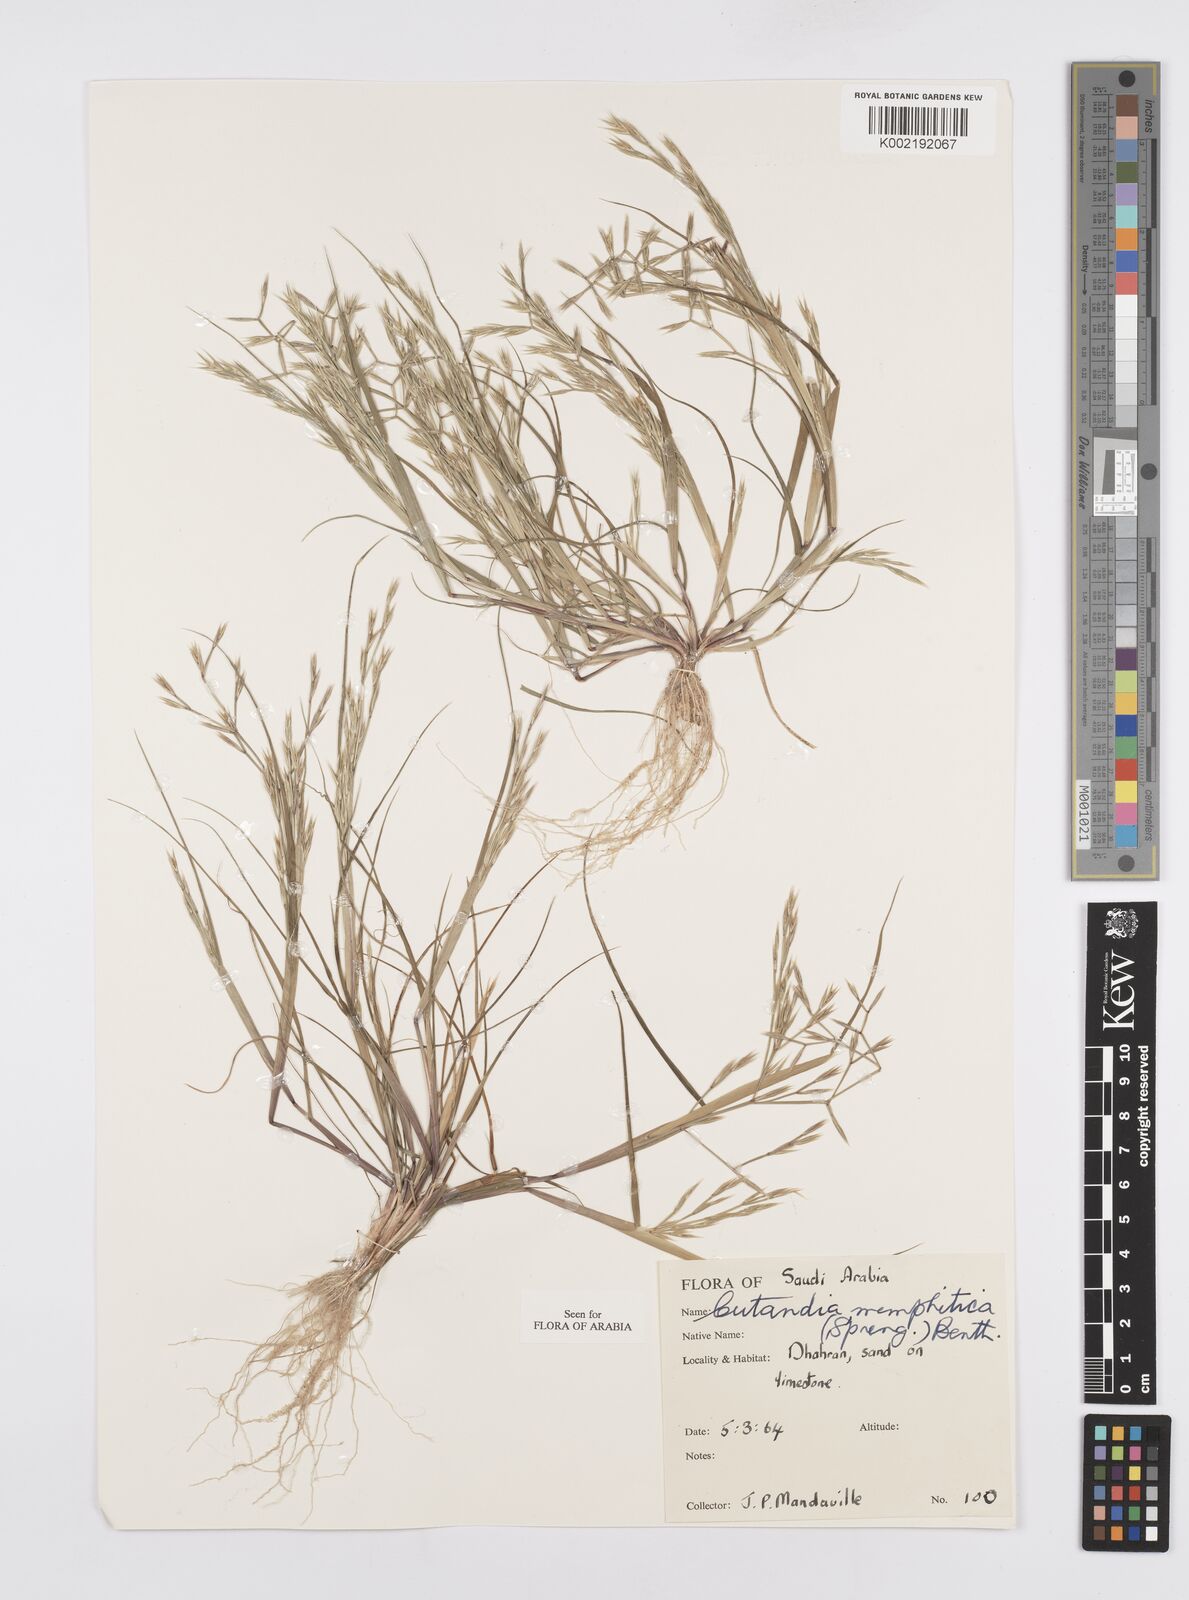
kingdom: Plantae
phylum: Tracheophyta
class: Liliopsida
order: Poales
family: Poaceae
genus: Cutandia
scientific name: Cutandia memphitica
